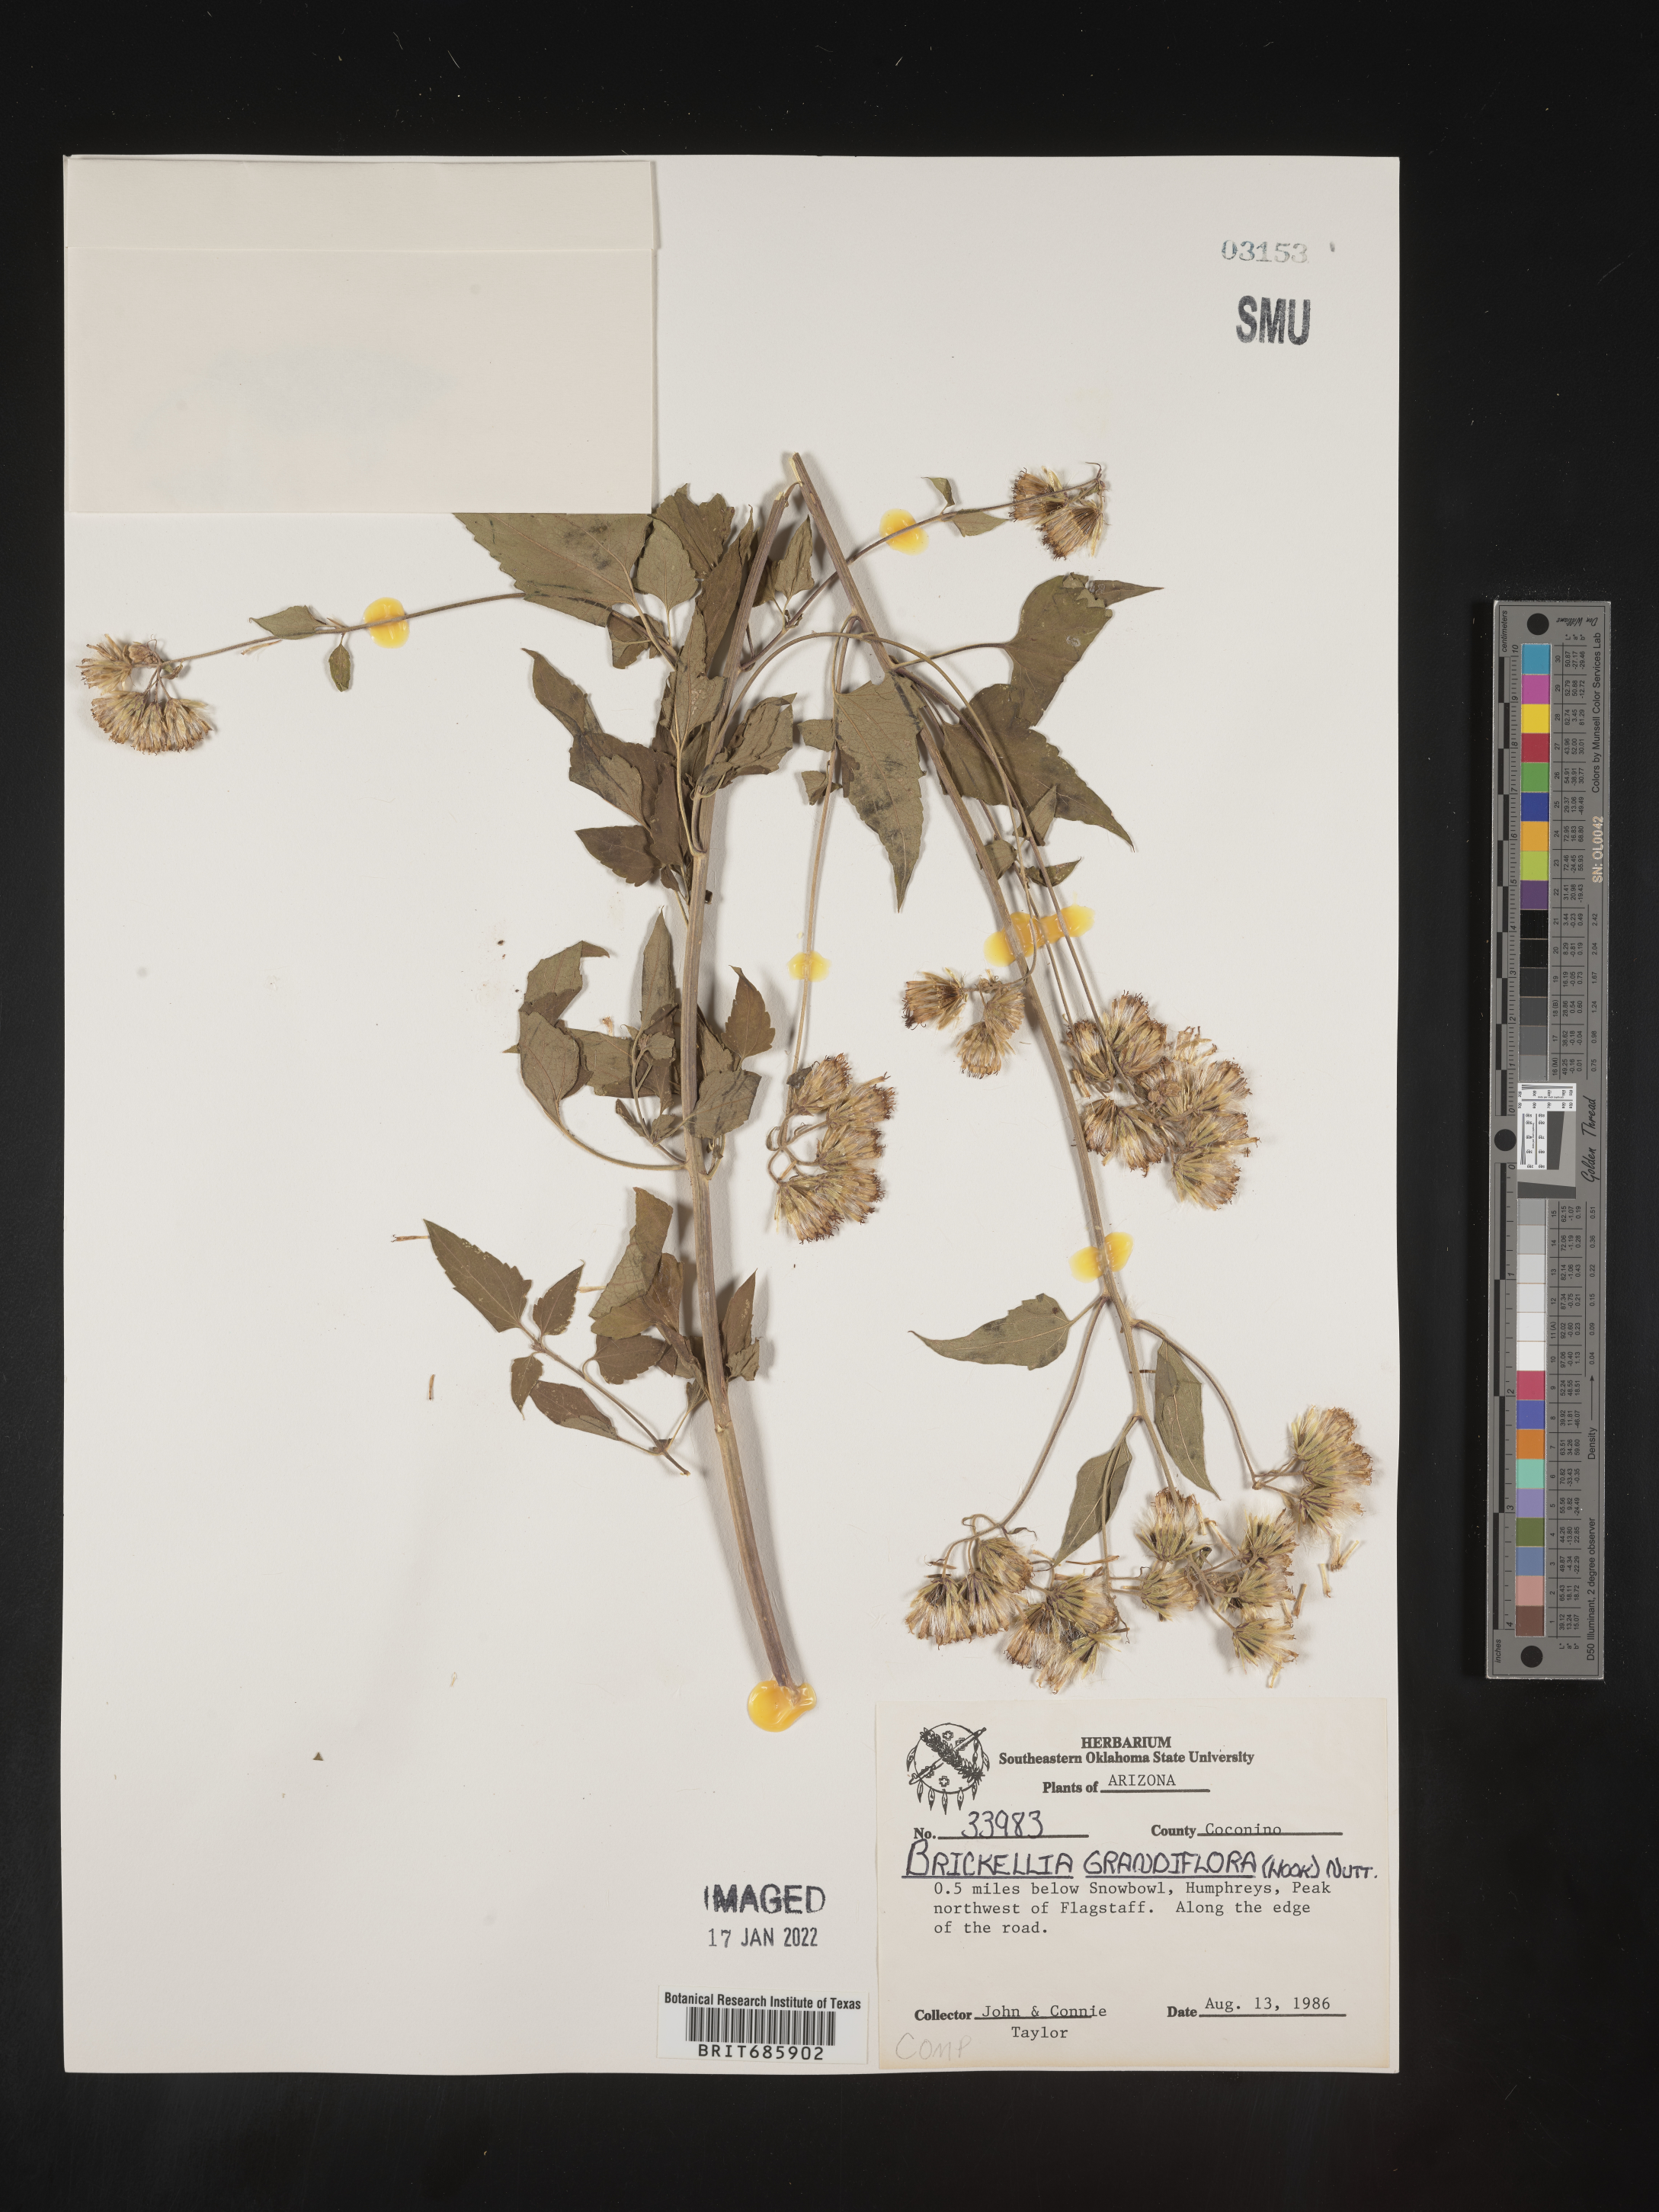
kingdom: Plantae
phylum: Tracheophyta
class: Magnoliopsida
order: Asterales
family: Asteraceae
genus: Brickellia
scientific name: Brickellia grandiflora
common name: Large-flowered brickellia
